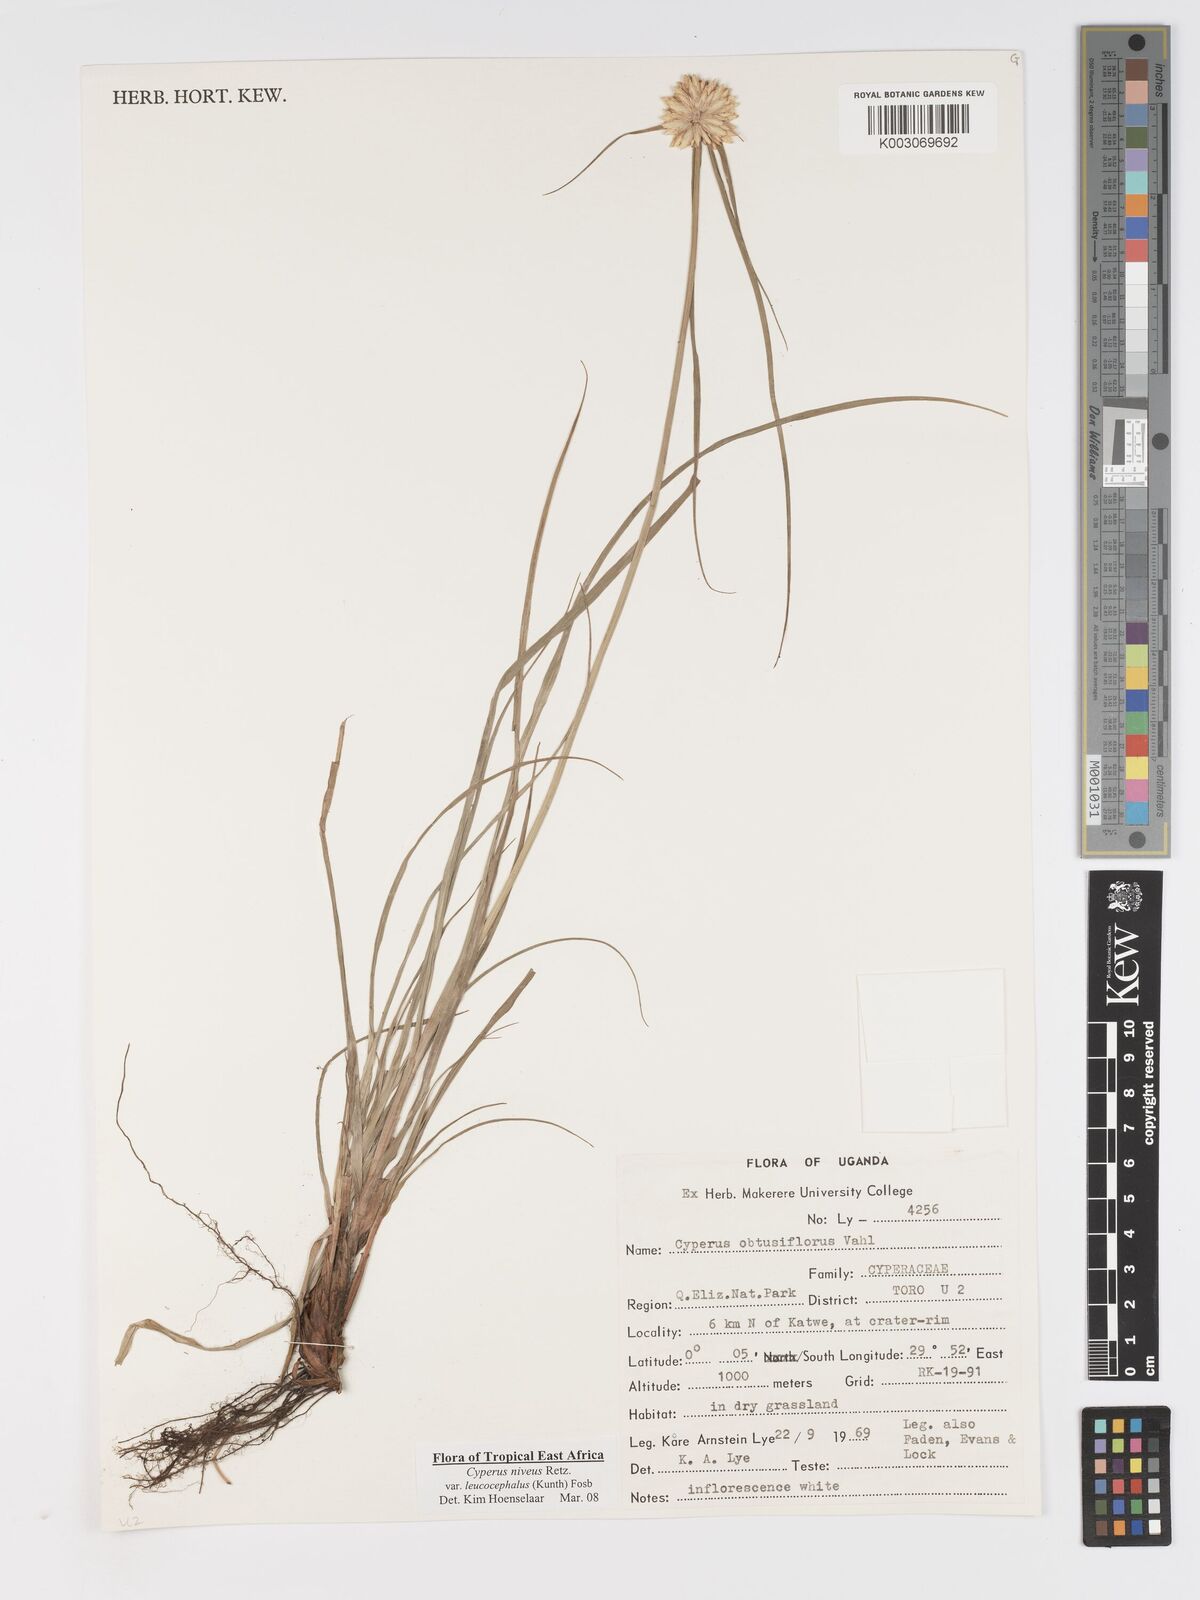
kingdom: Plantae
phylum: Tracheophyta
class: Liliopsida
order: Poales
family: Cyperaceae
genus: Cyperus
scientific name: Cyperus niveus
